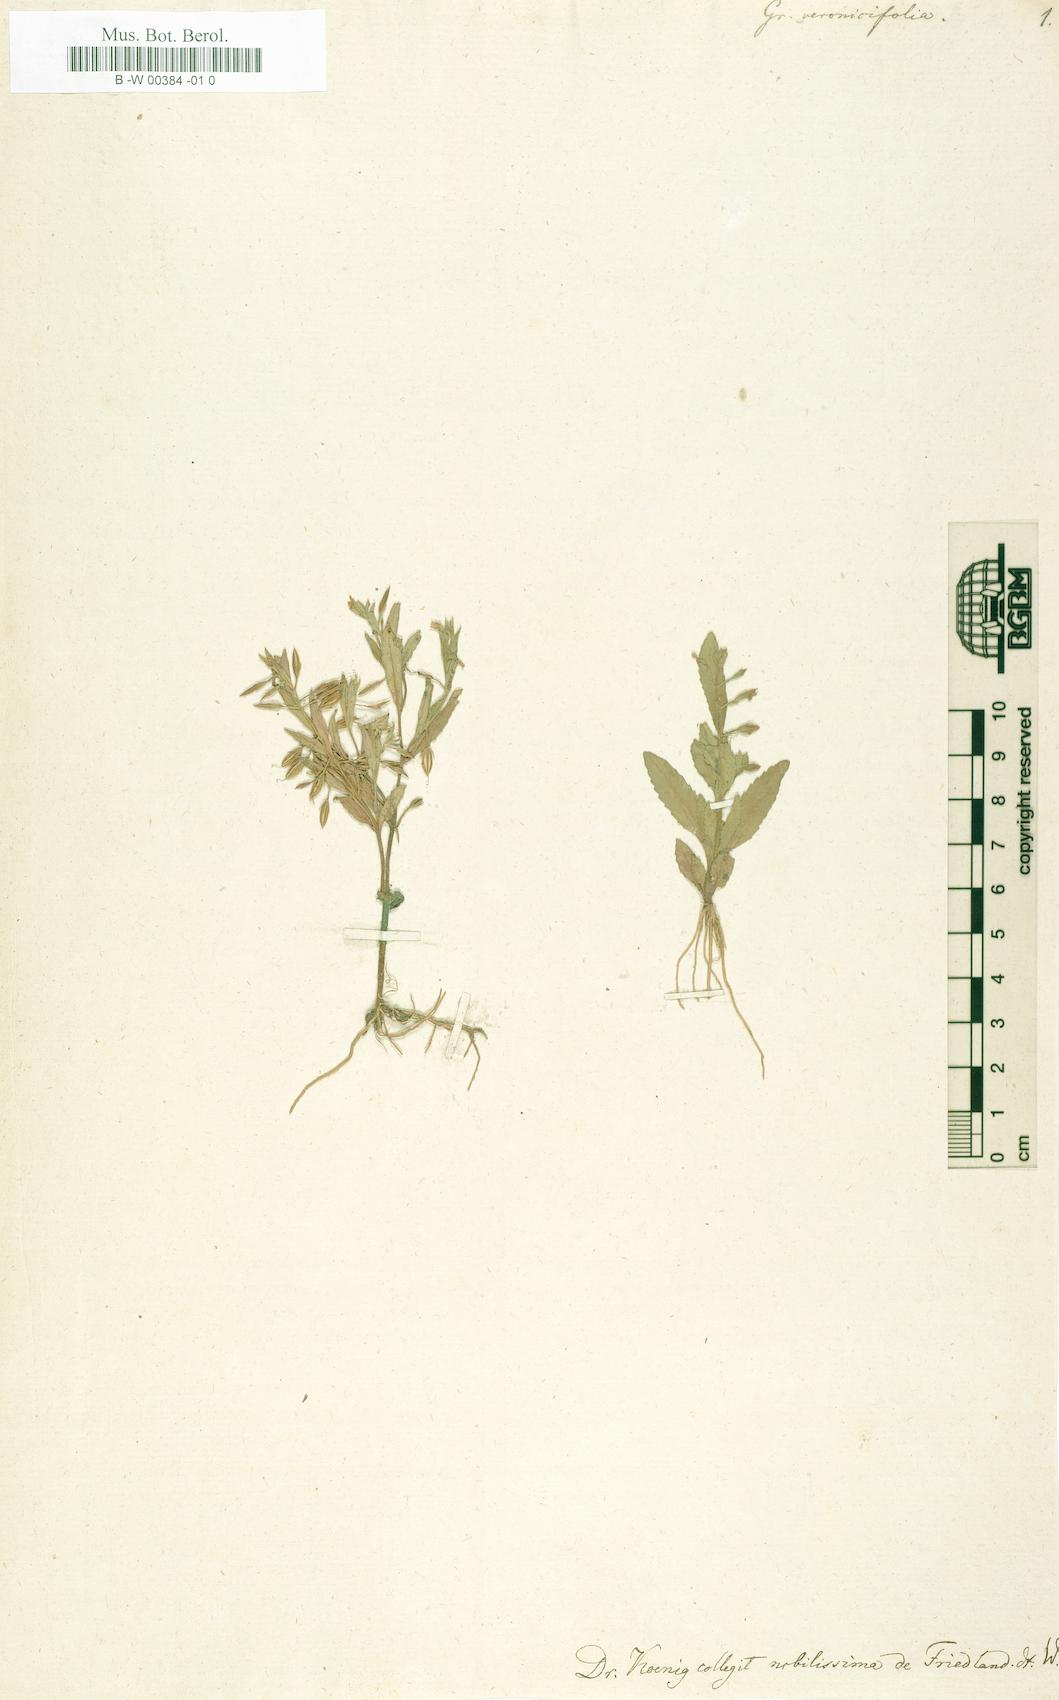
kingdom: Plantae
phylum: Tracheophyta
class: Magnoliopsida
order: Lamiales
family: Linderniaceae
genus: Bonnaya
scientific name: Bonnaya veronicifolia
